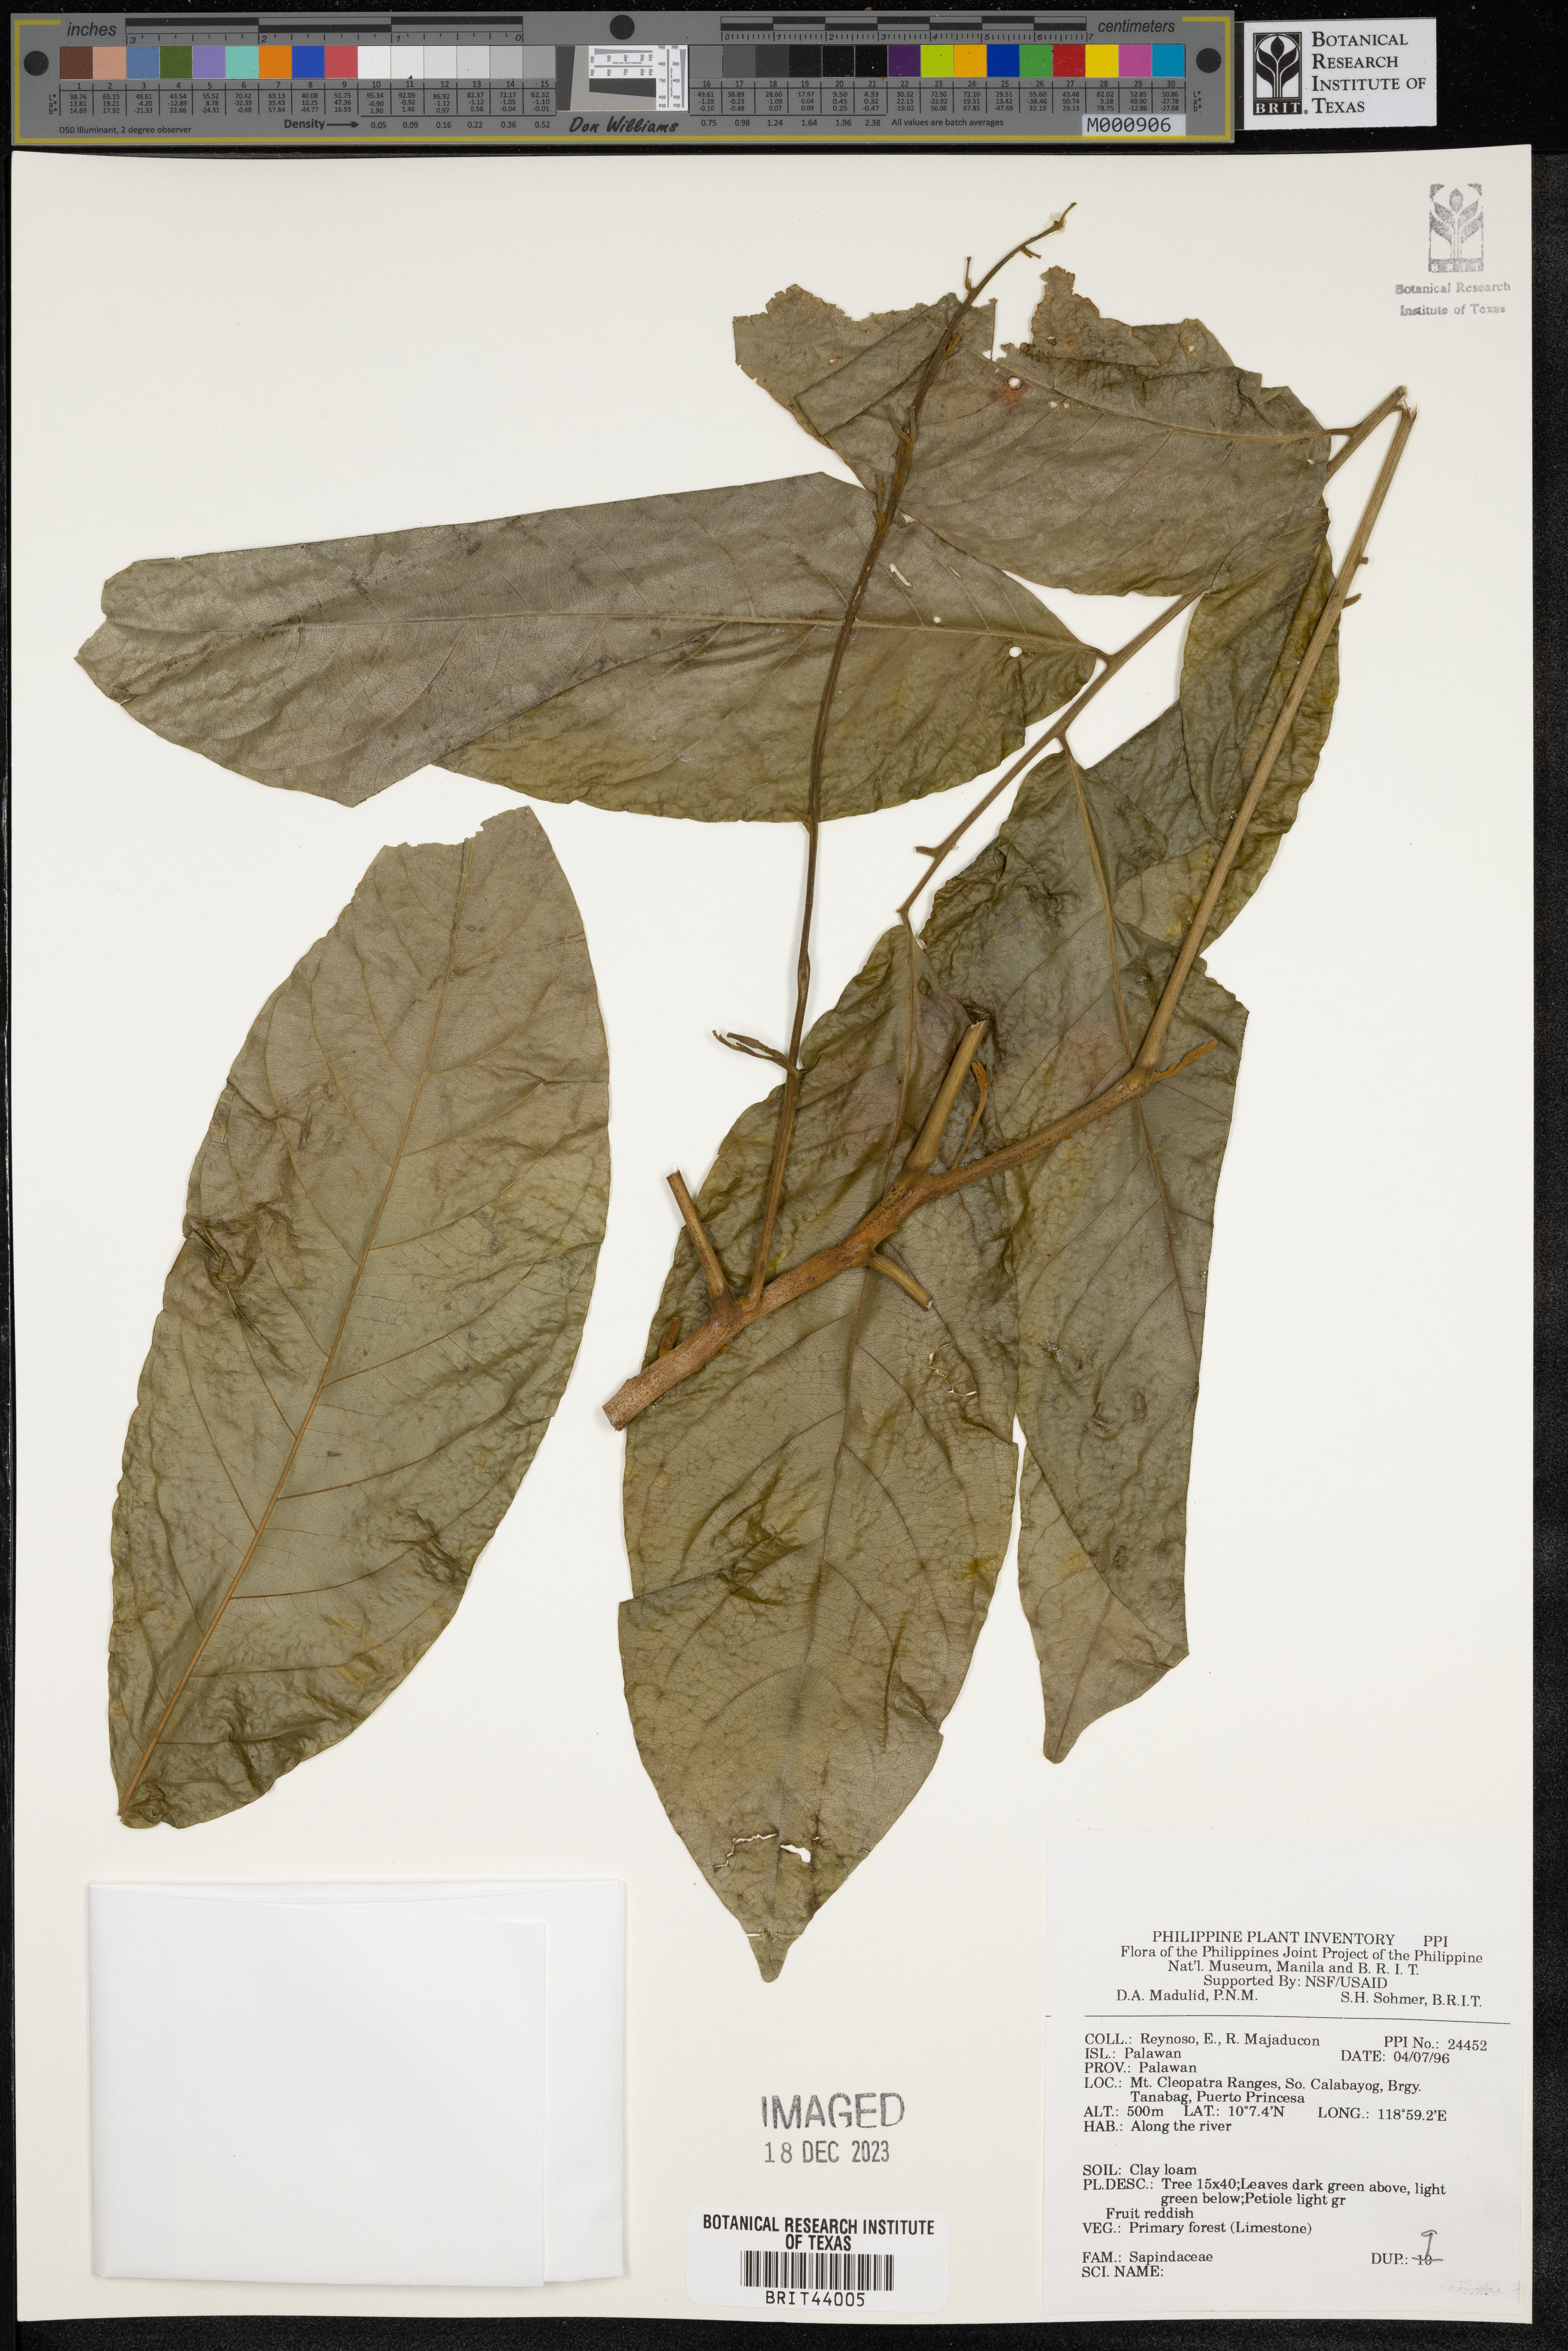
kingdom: Plantae
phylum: Tracheophyta
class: Magnoliopsida
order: Sapindales
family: Sapindaceae
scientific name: Sapindaceae
